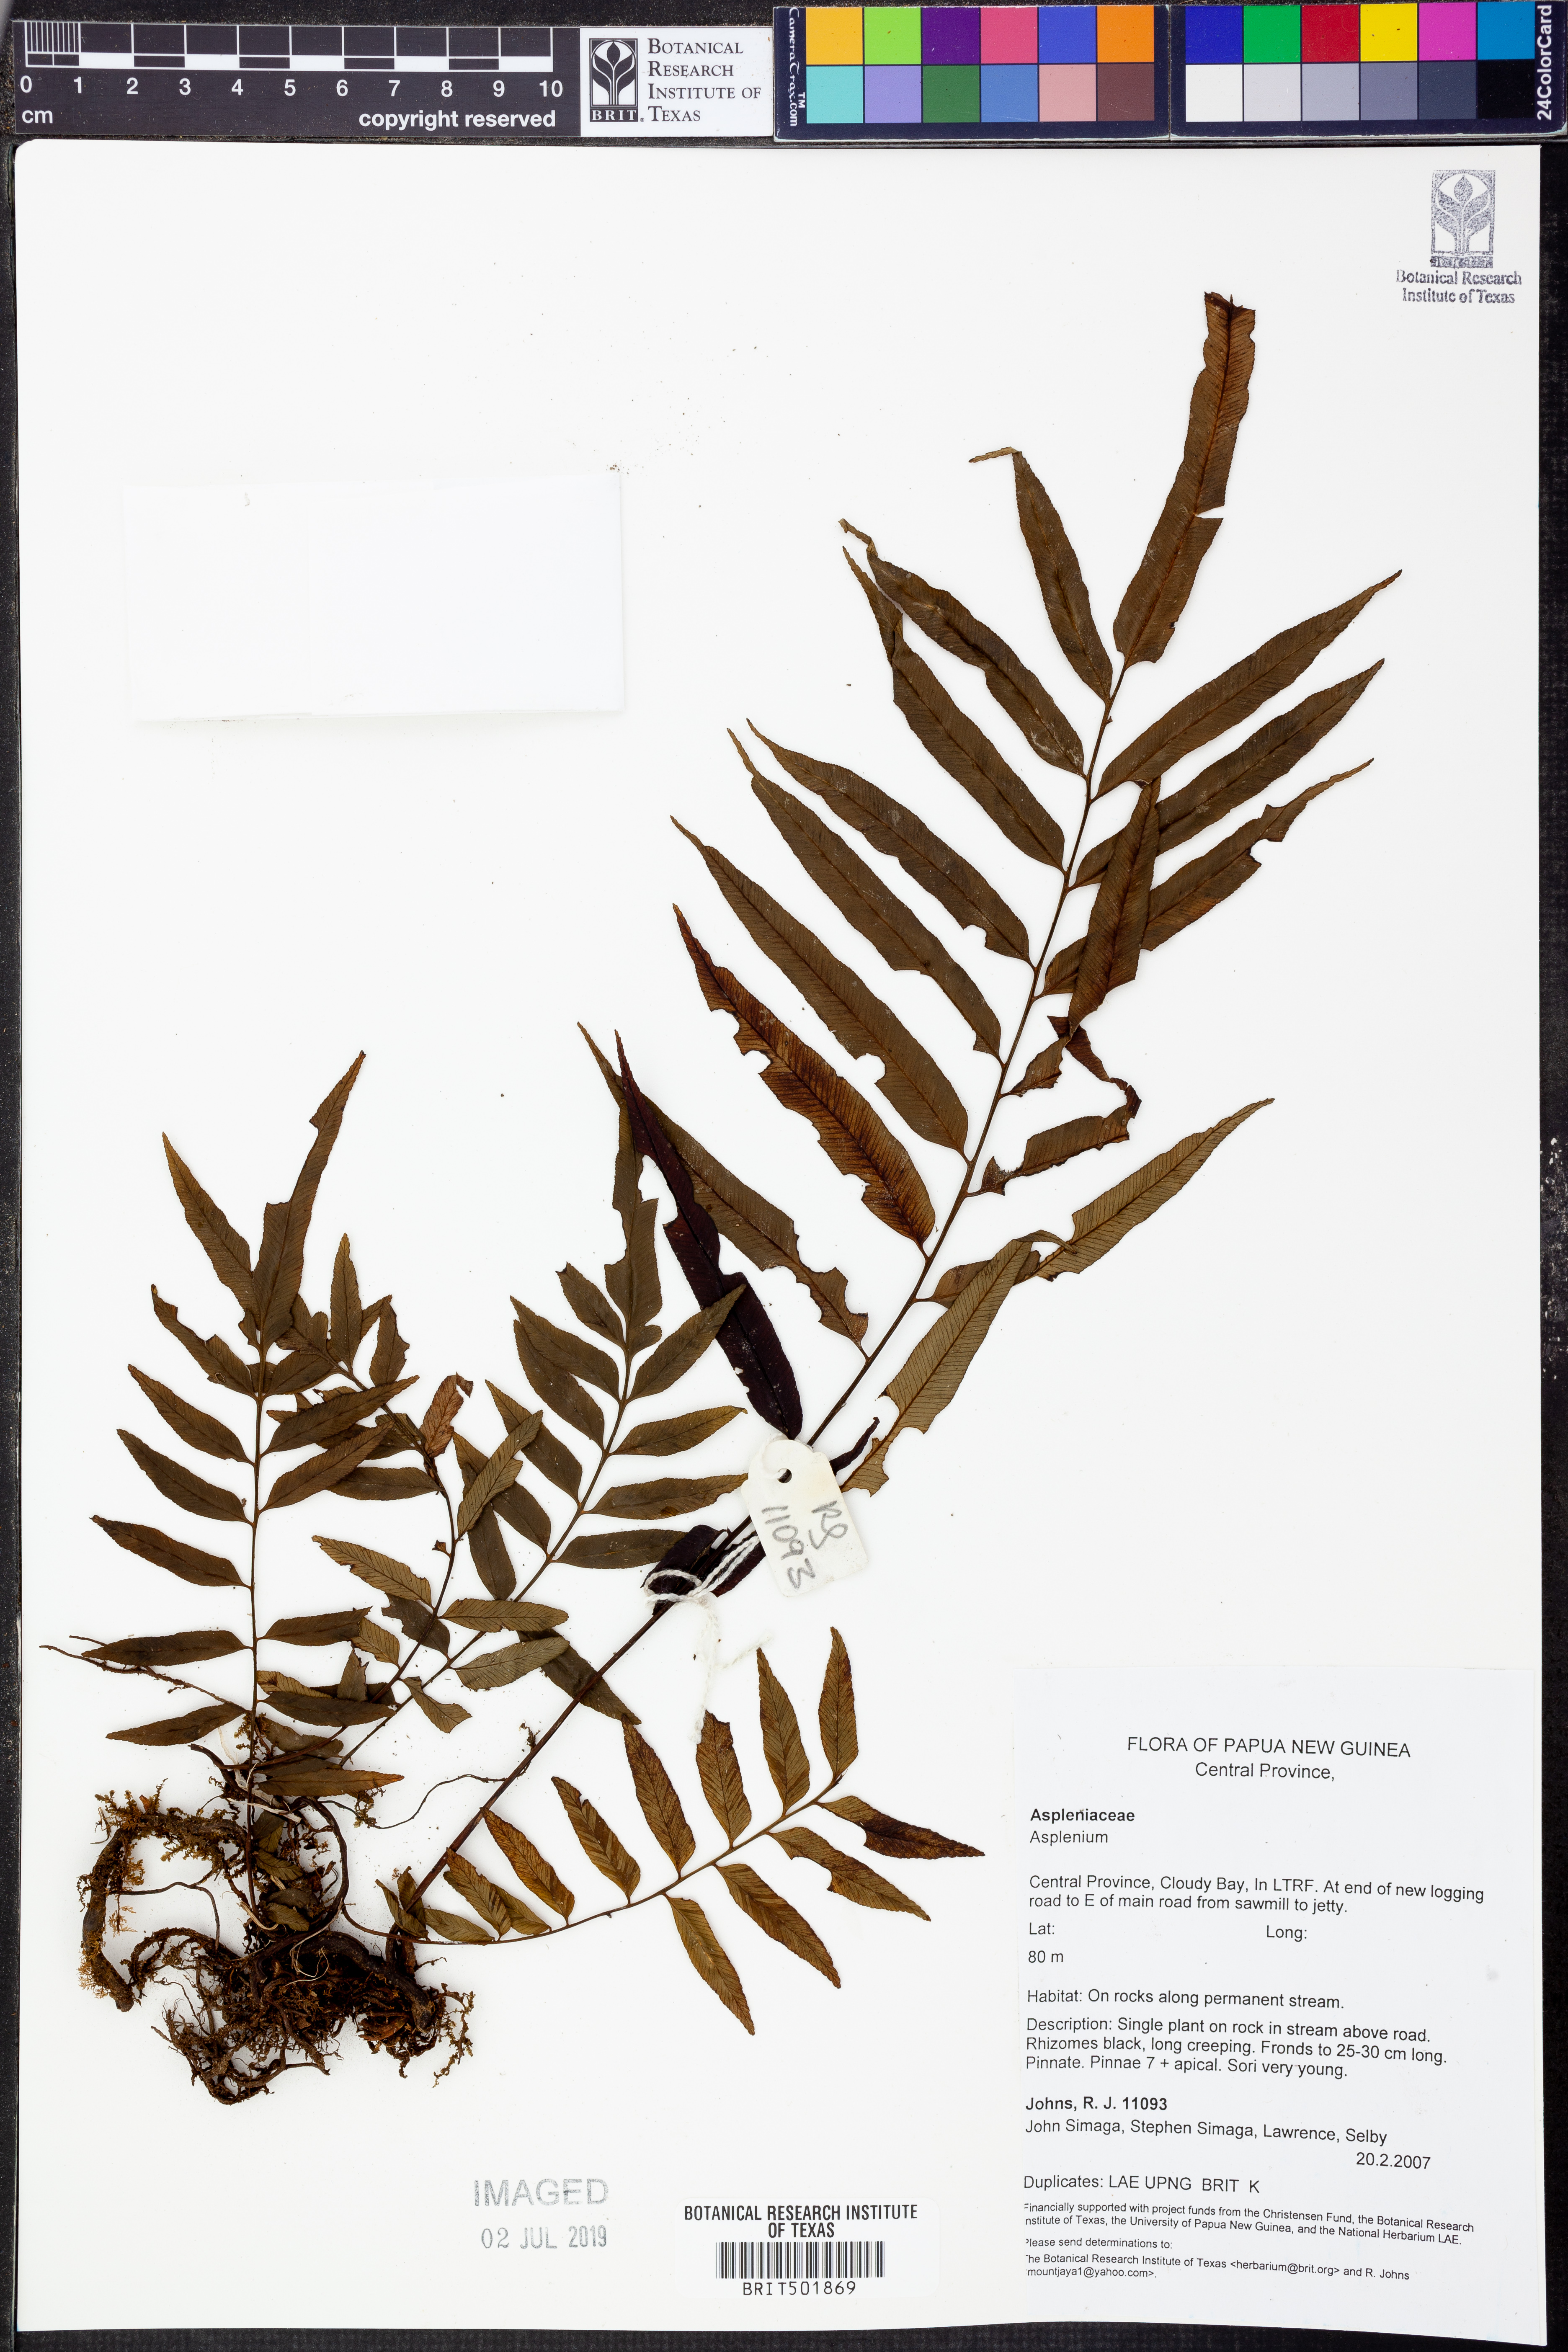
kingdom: Plantae
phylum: Tracheophyta
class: Polypodiopsida
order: Polypodiales
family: Aspleniaceae
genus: Asplenium
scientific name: Asplenium
